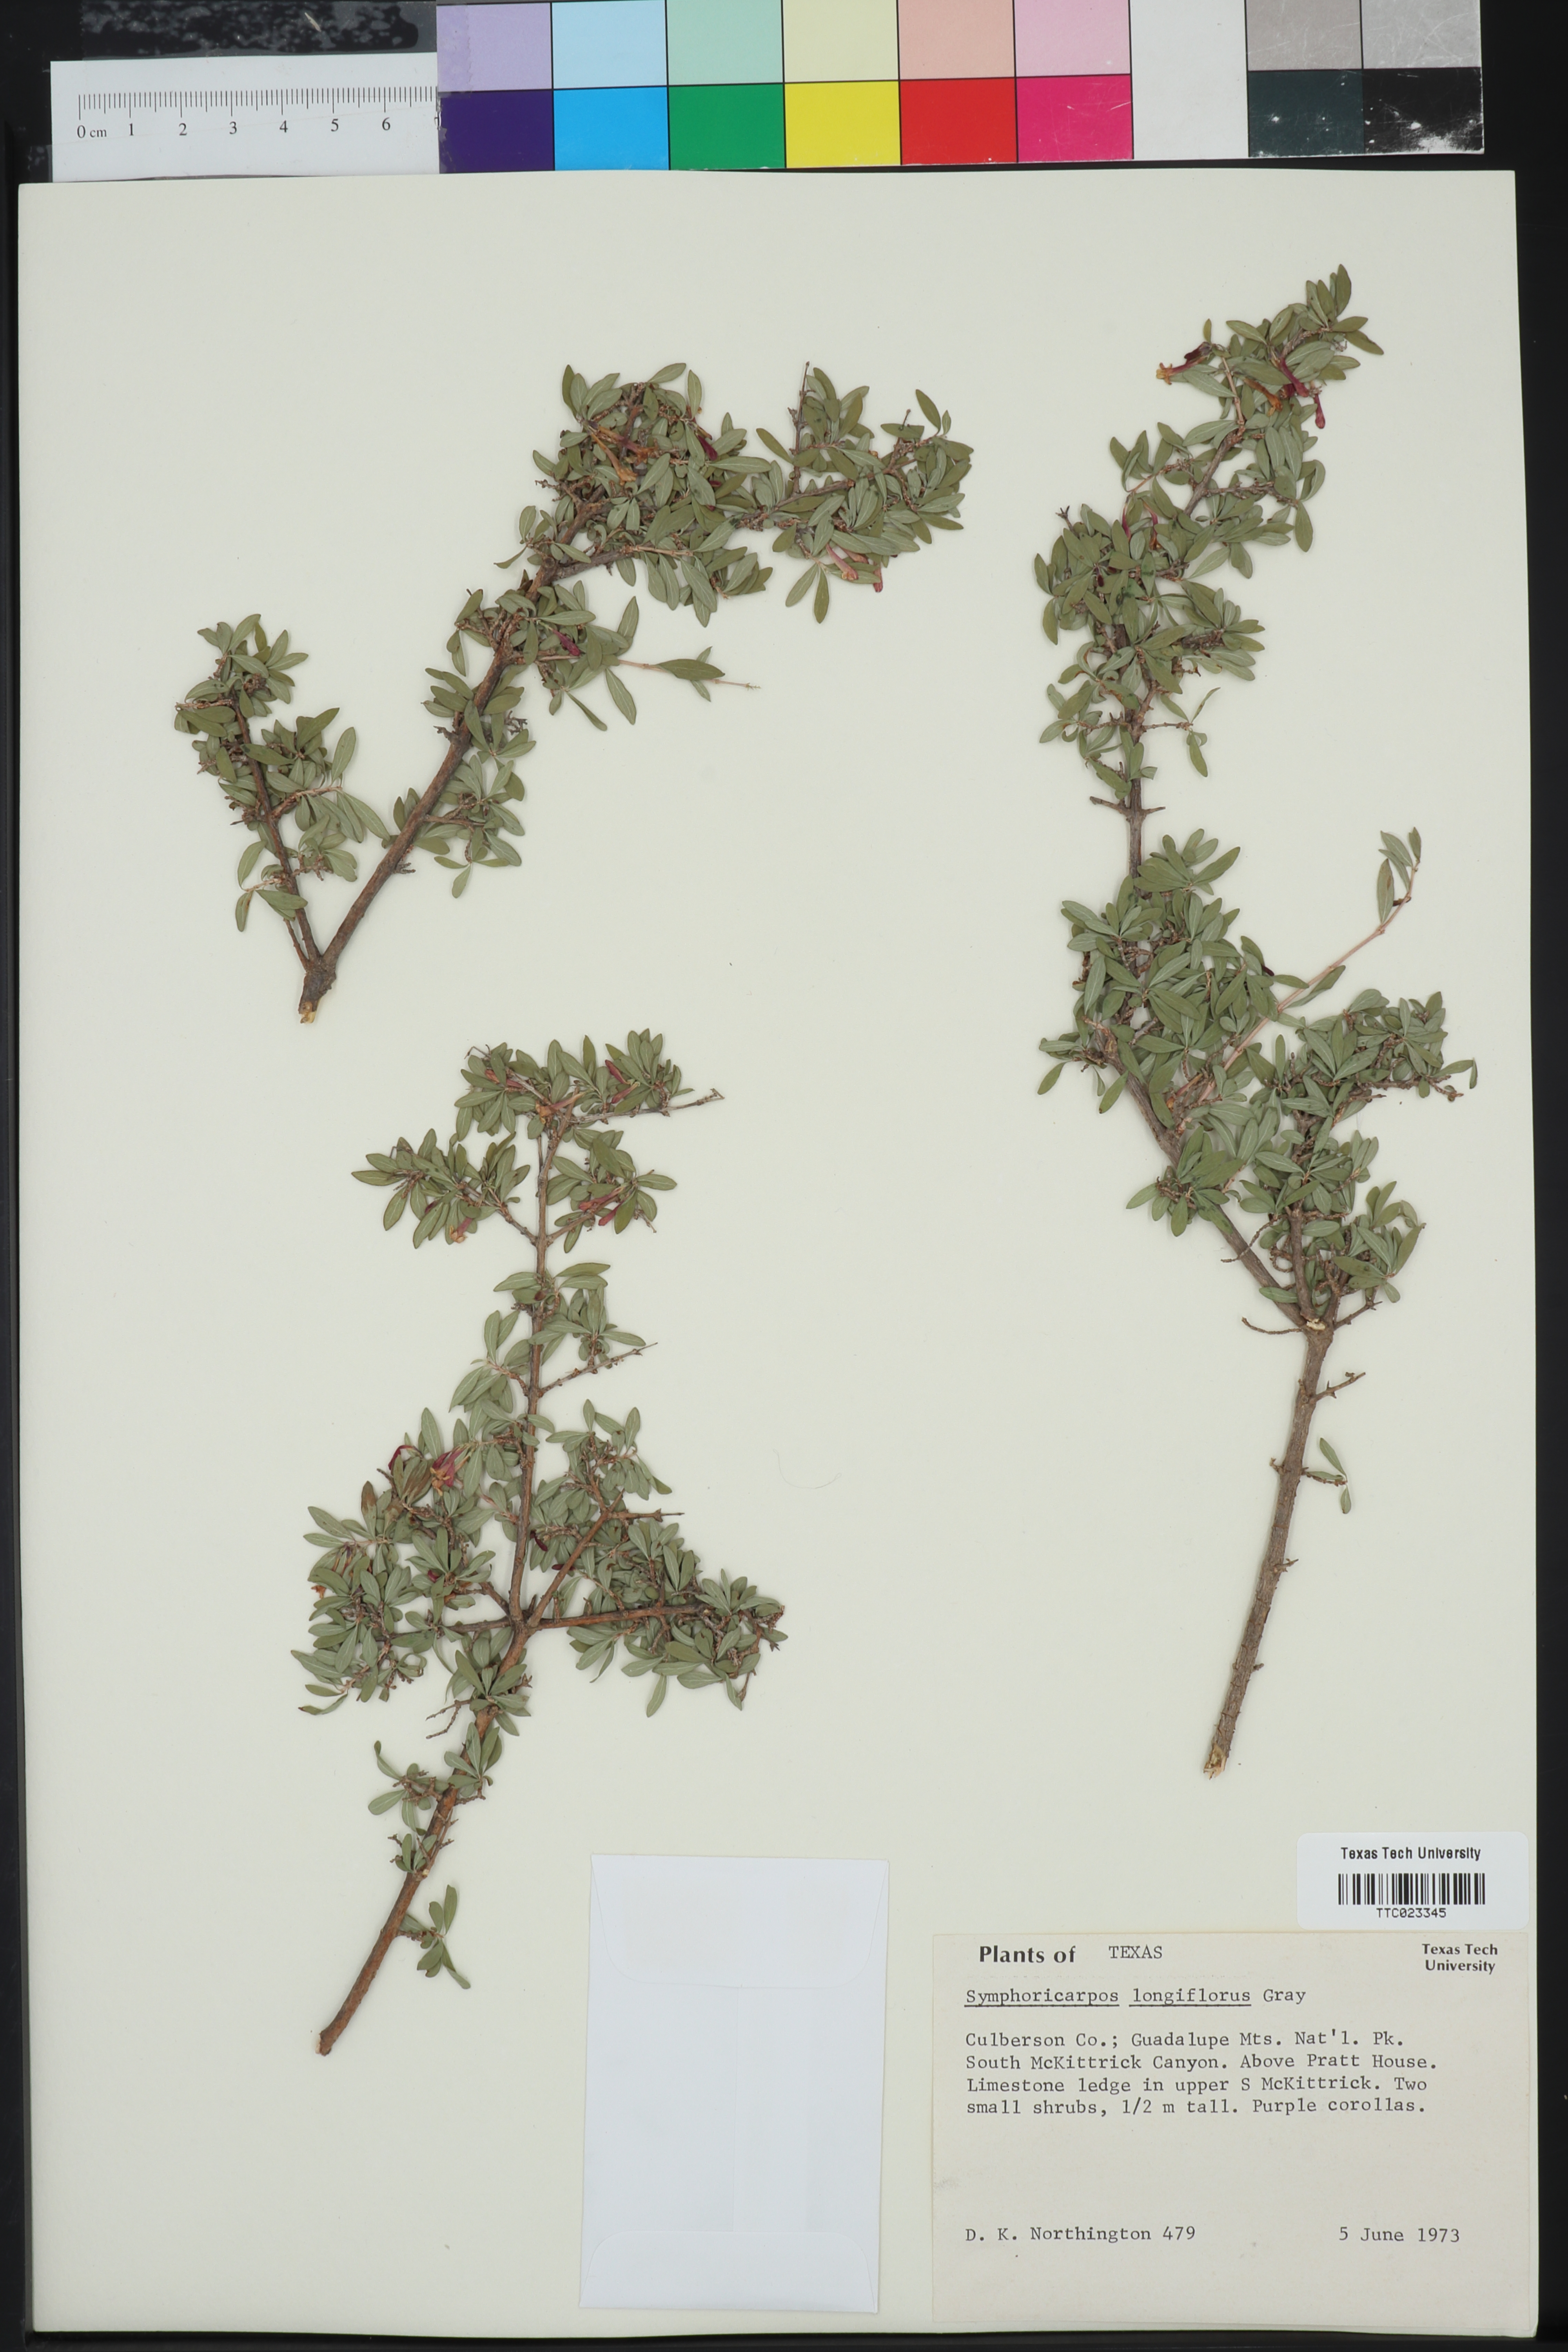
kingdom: Plantae
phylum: Tracheophyta
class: Magnoliopsida
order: Dipsacales
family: Caprifoliaceae
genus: Symphoricarpos
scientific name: Symphoricarpos longiflorus
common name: Fragrant snowberry
